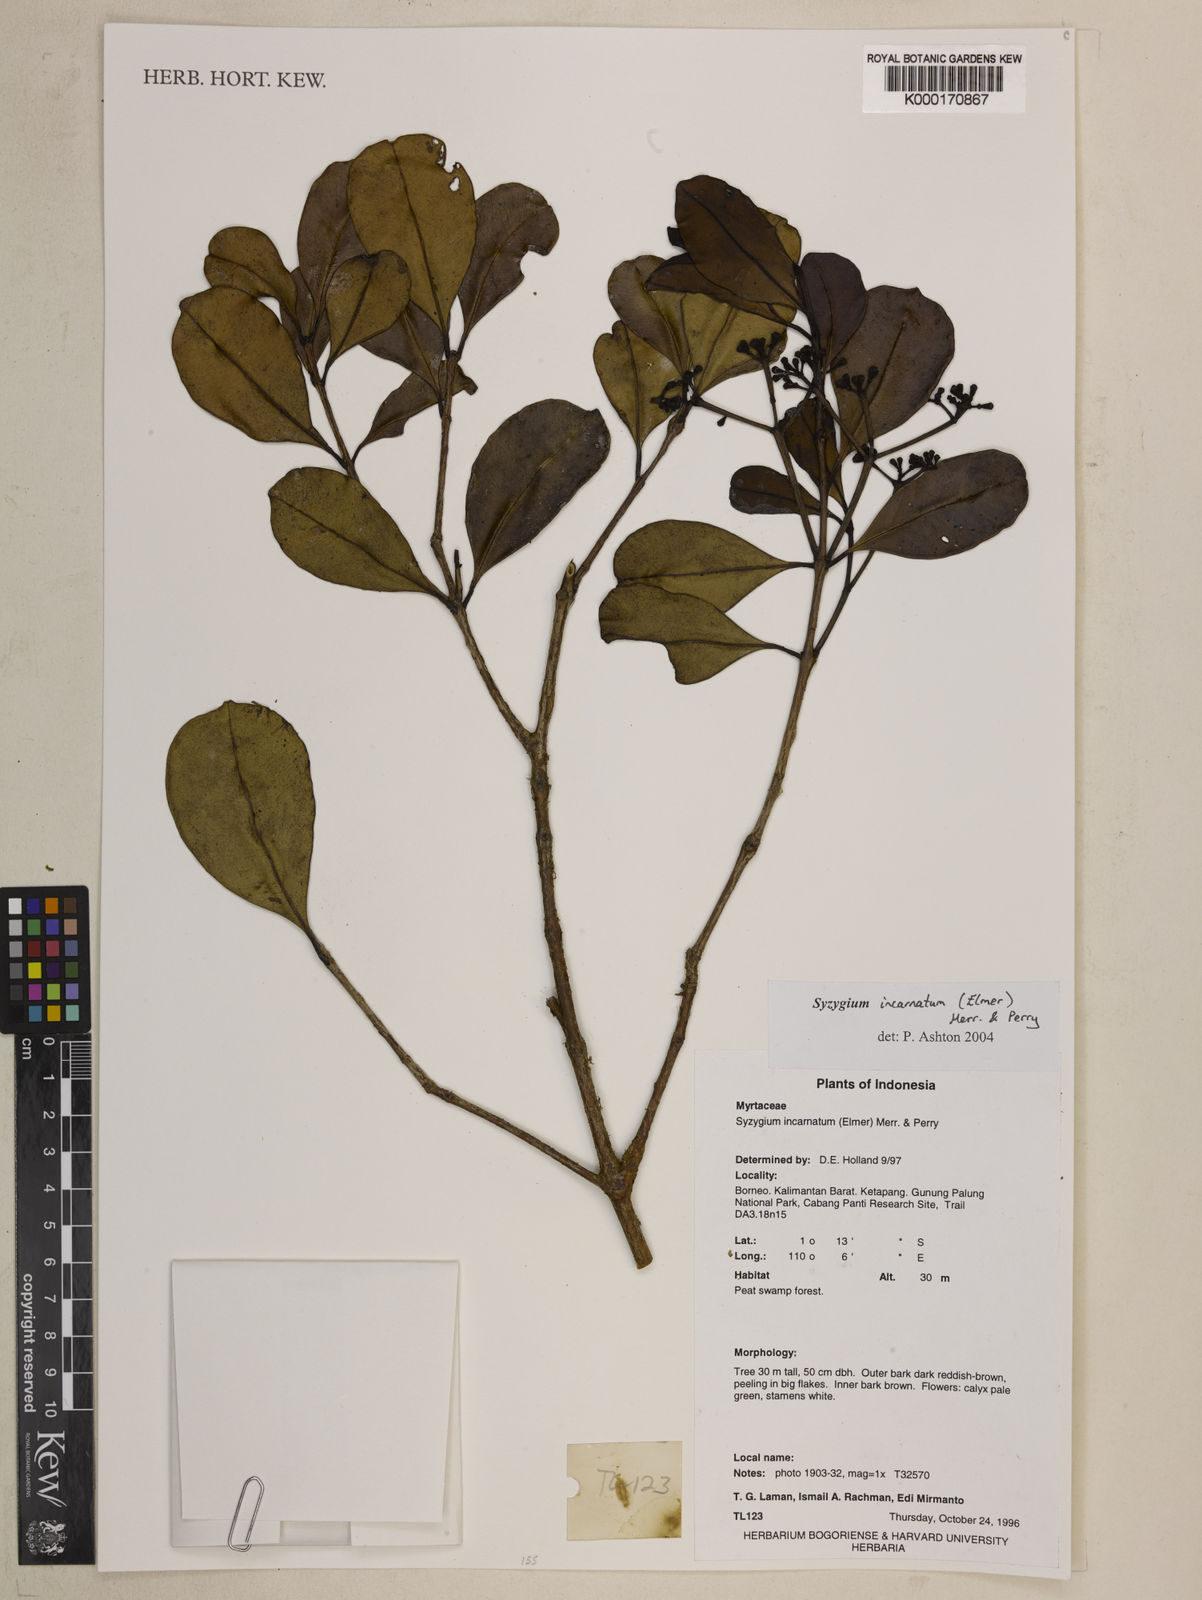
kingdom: Plantae
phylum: Tracheophyta
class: Magnoliopsida
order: Myrtales
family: Myrtaceae
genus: Syzygium
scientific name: Syzygium incarnatum
